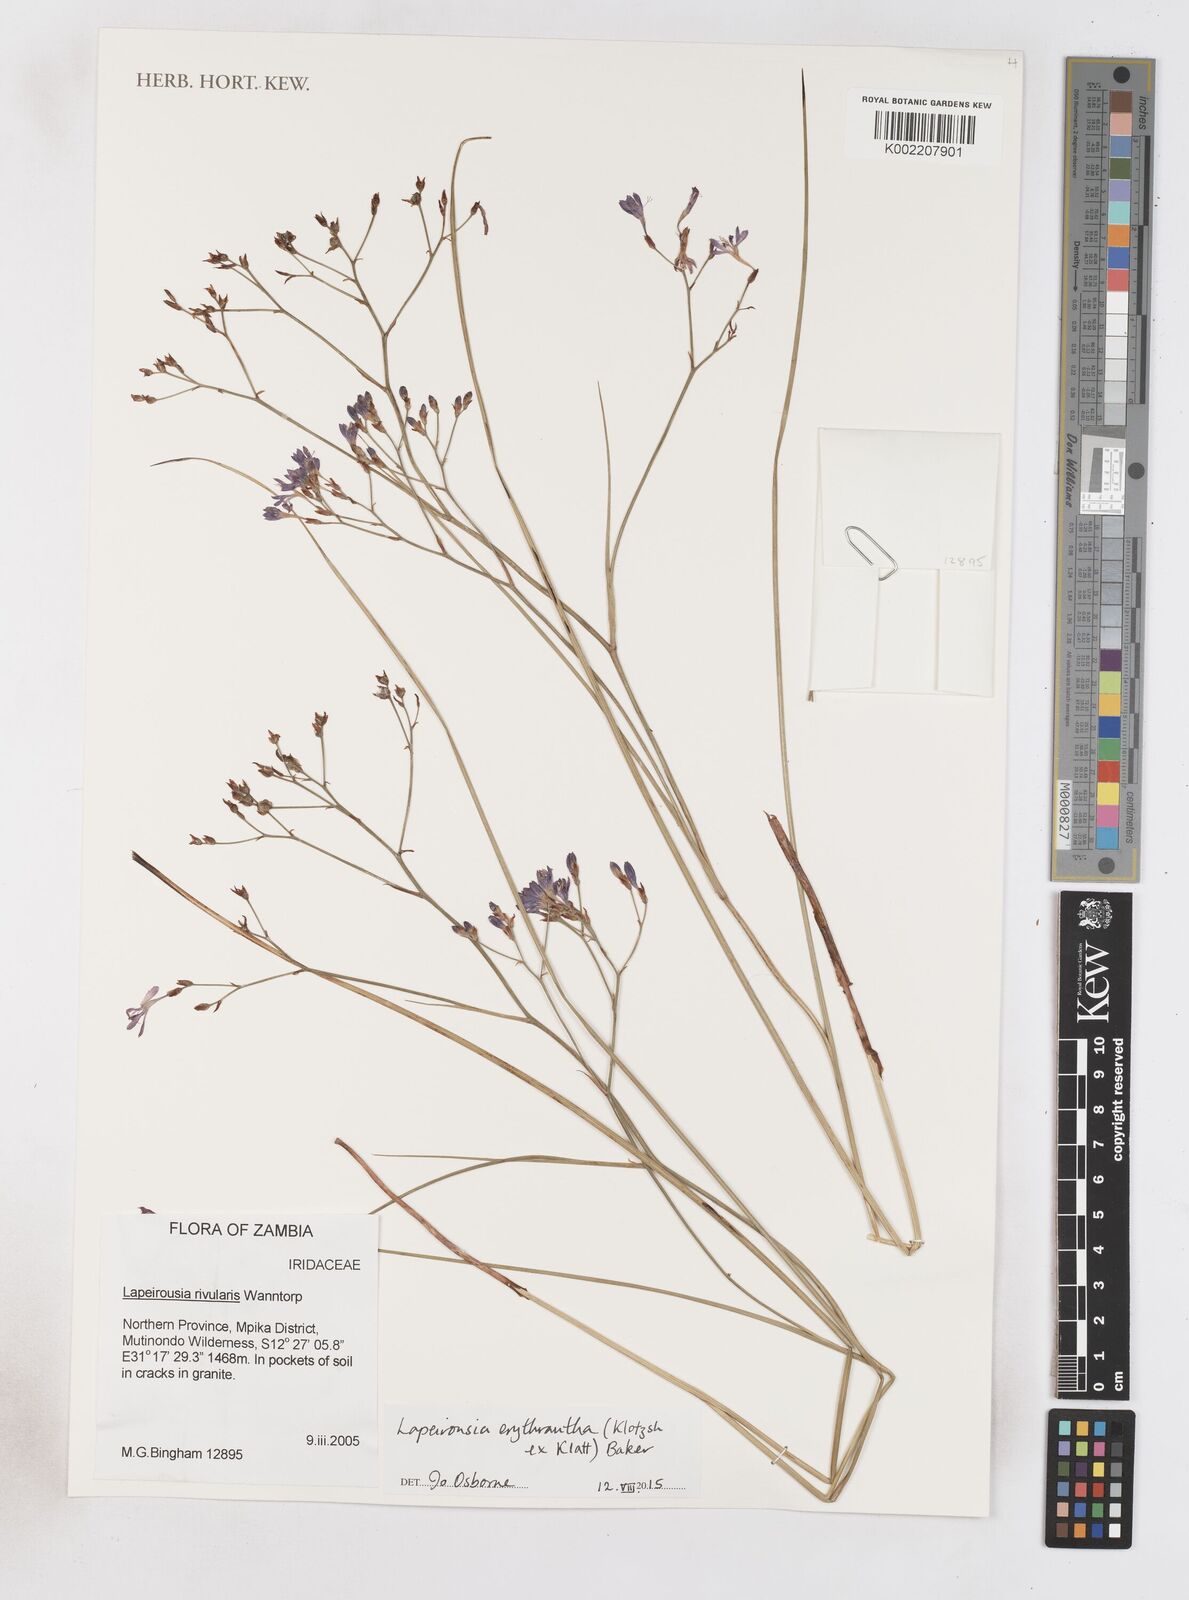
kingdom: Plantae
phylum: Tracheophyta
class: Liliopsida
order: Asparagales
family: Iridaceae
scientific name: Iridaceae
